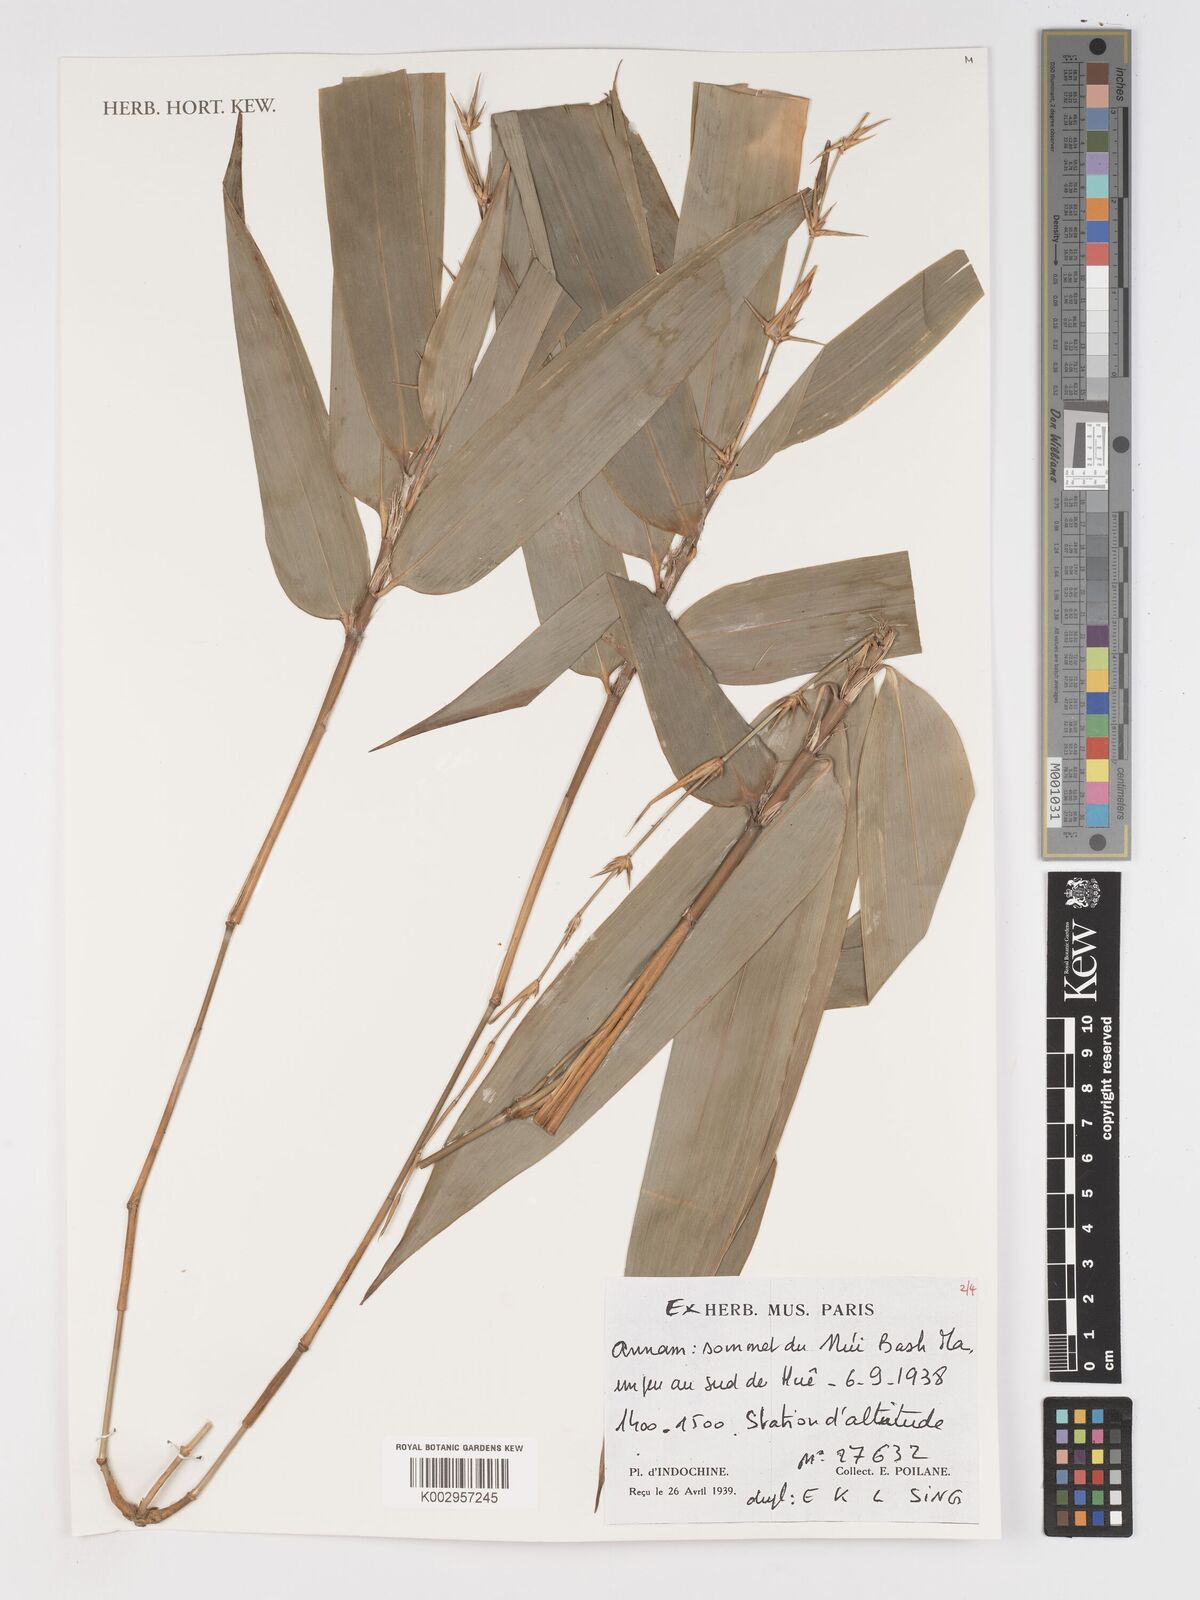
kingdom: Plantae
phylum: Tracheophyta
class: Liliopsida
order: Poales
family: Poaceae
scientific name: Poaceae
